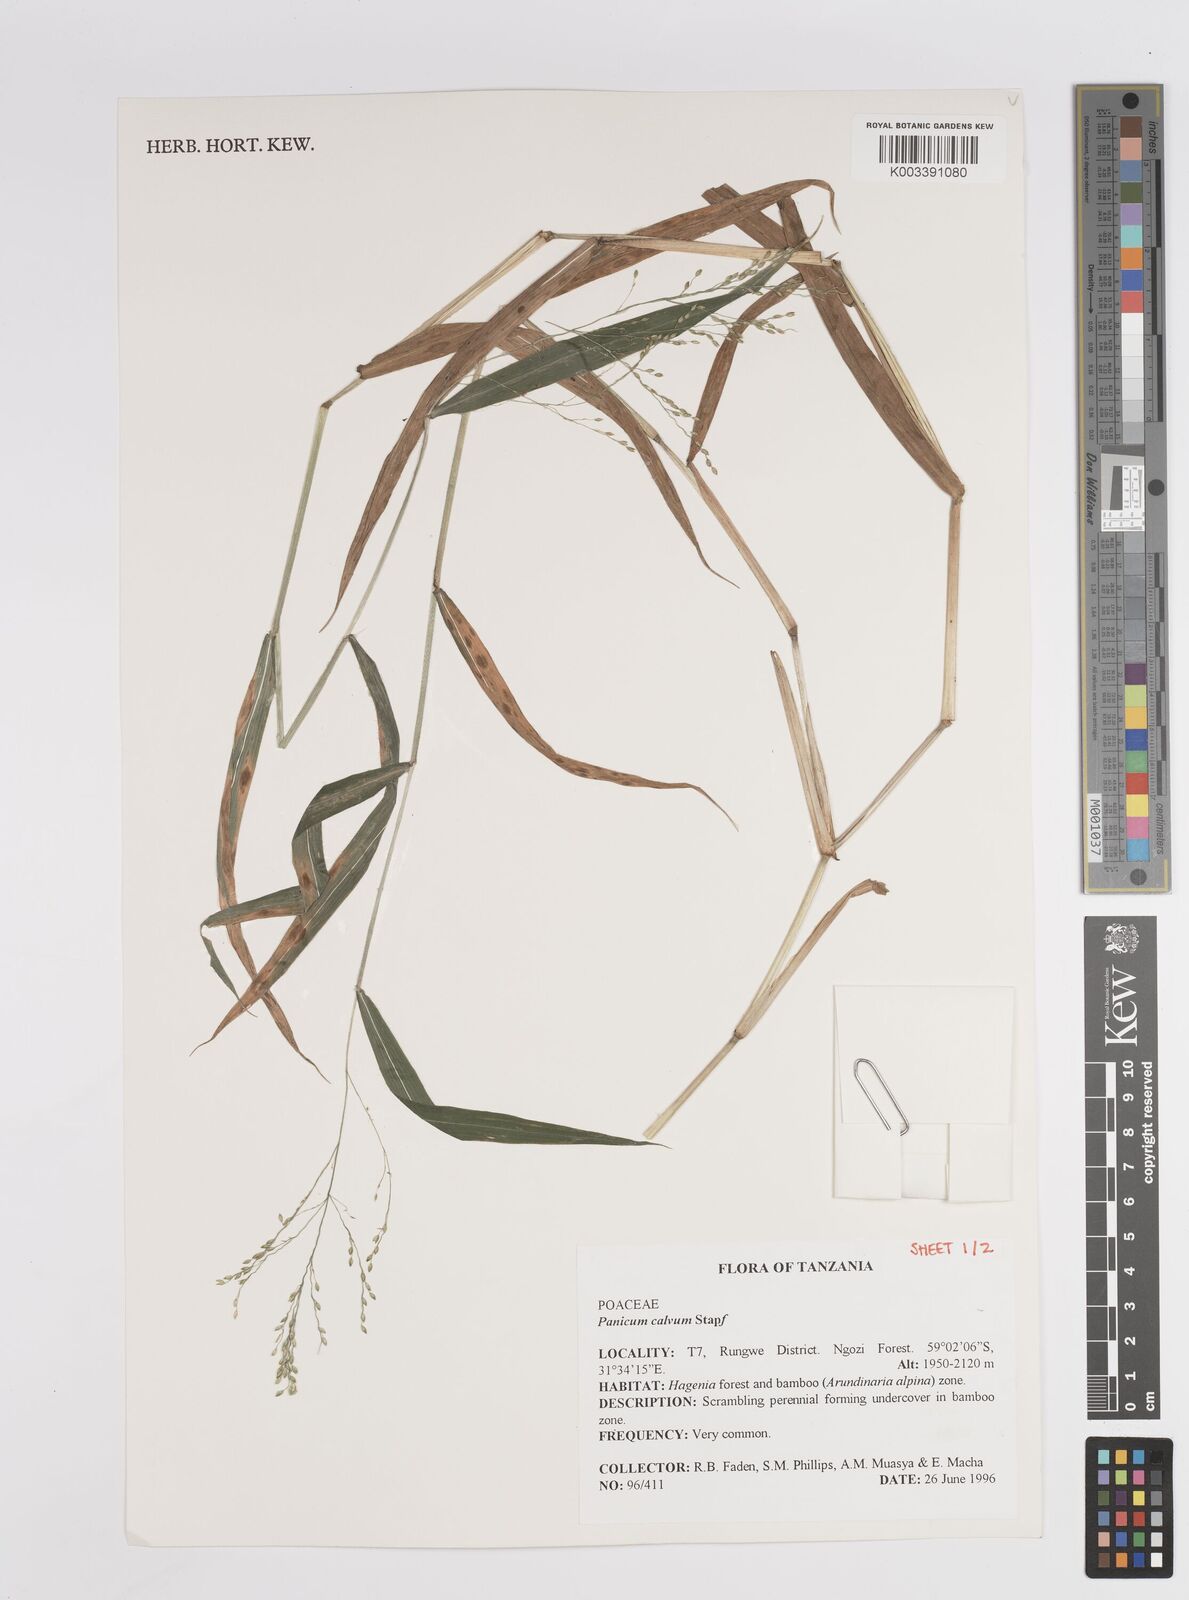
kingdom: Plantae
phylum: Tracheophyta
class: Liliopsida
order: Poales
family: Poaceae
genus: Panicum
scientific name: Panicum calvum
